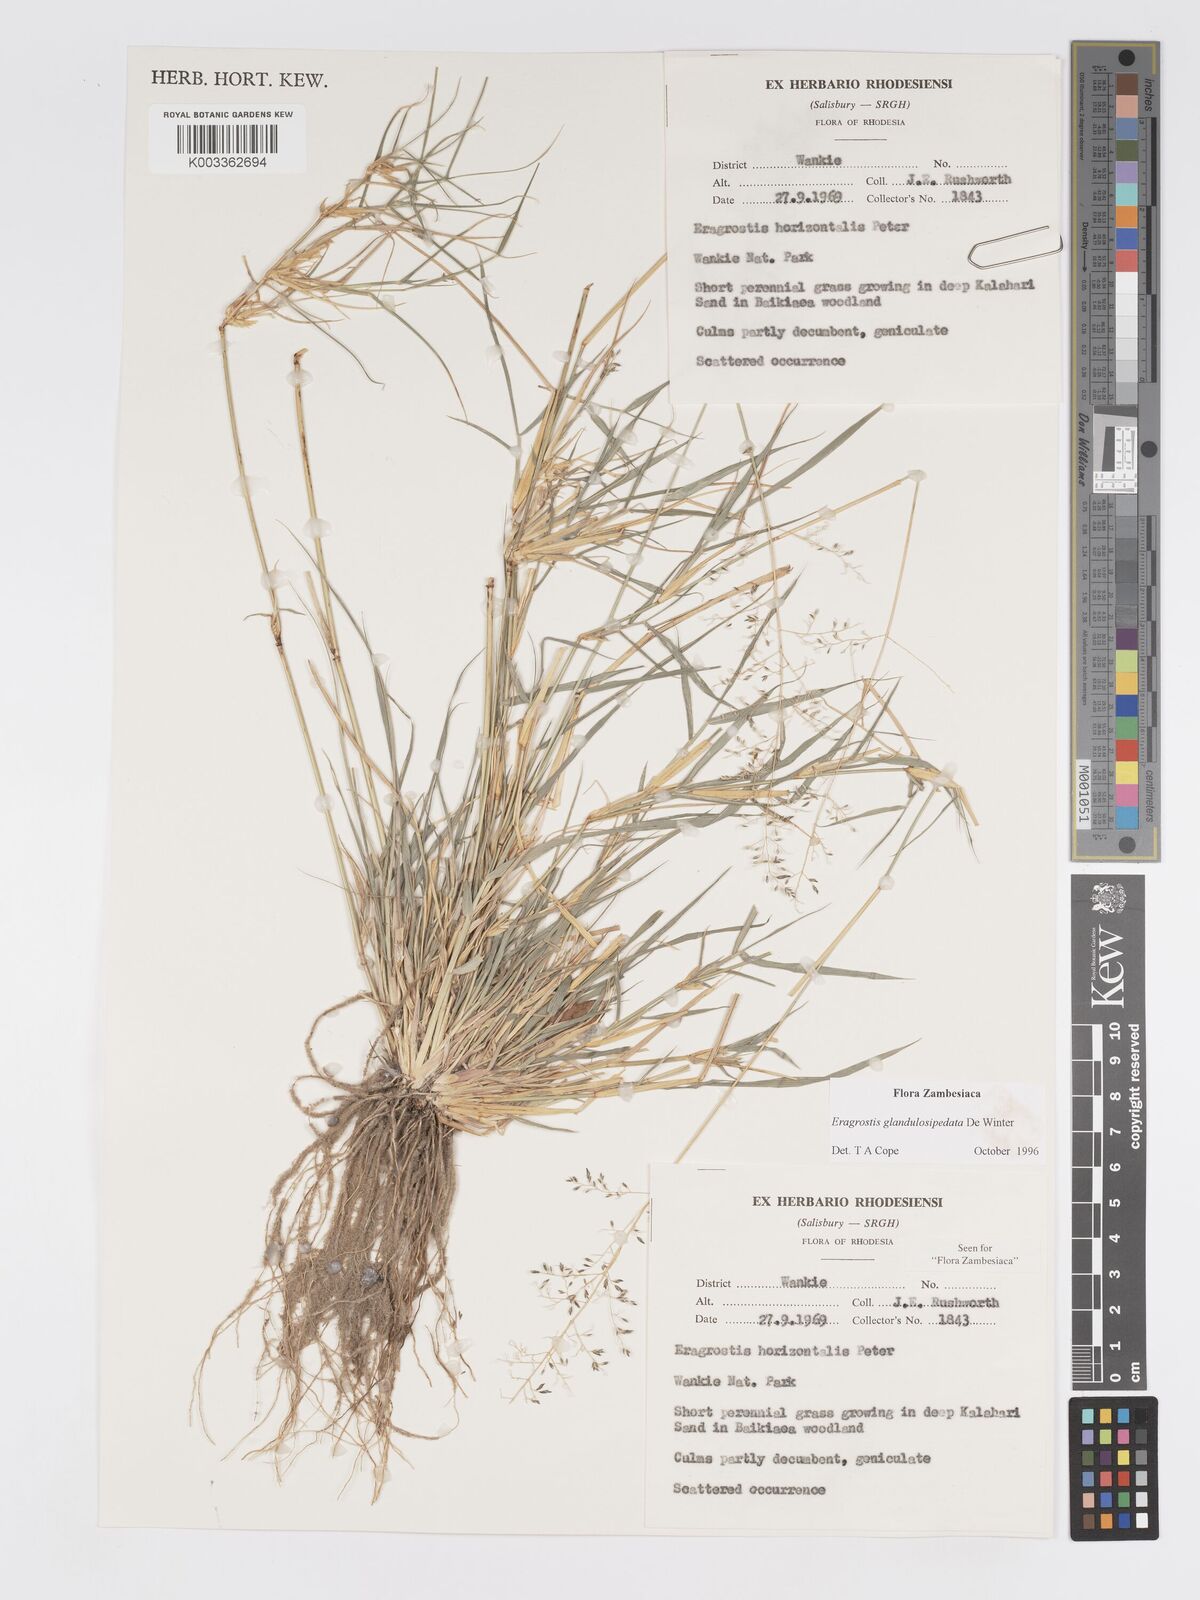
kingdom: Plantae
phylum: Tracheophyta
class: Liliopsida
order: Poales
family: Poaceae
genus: Eragrostis
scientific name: Eragrostis glandulosipedata
